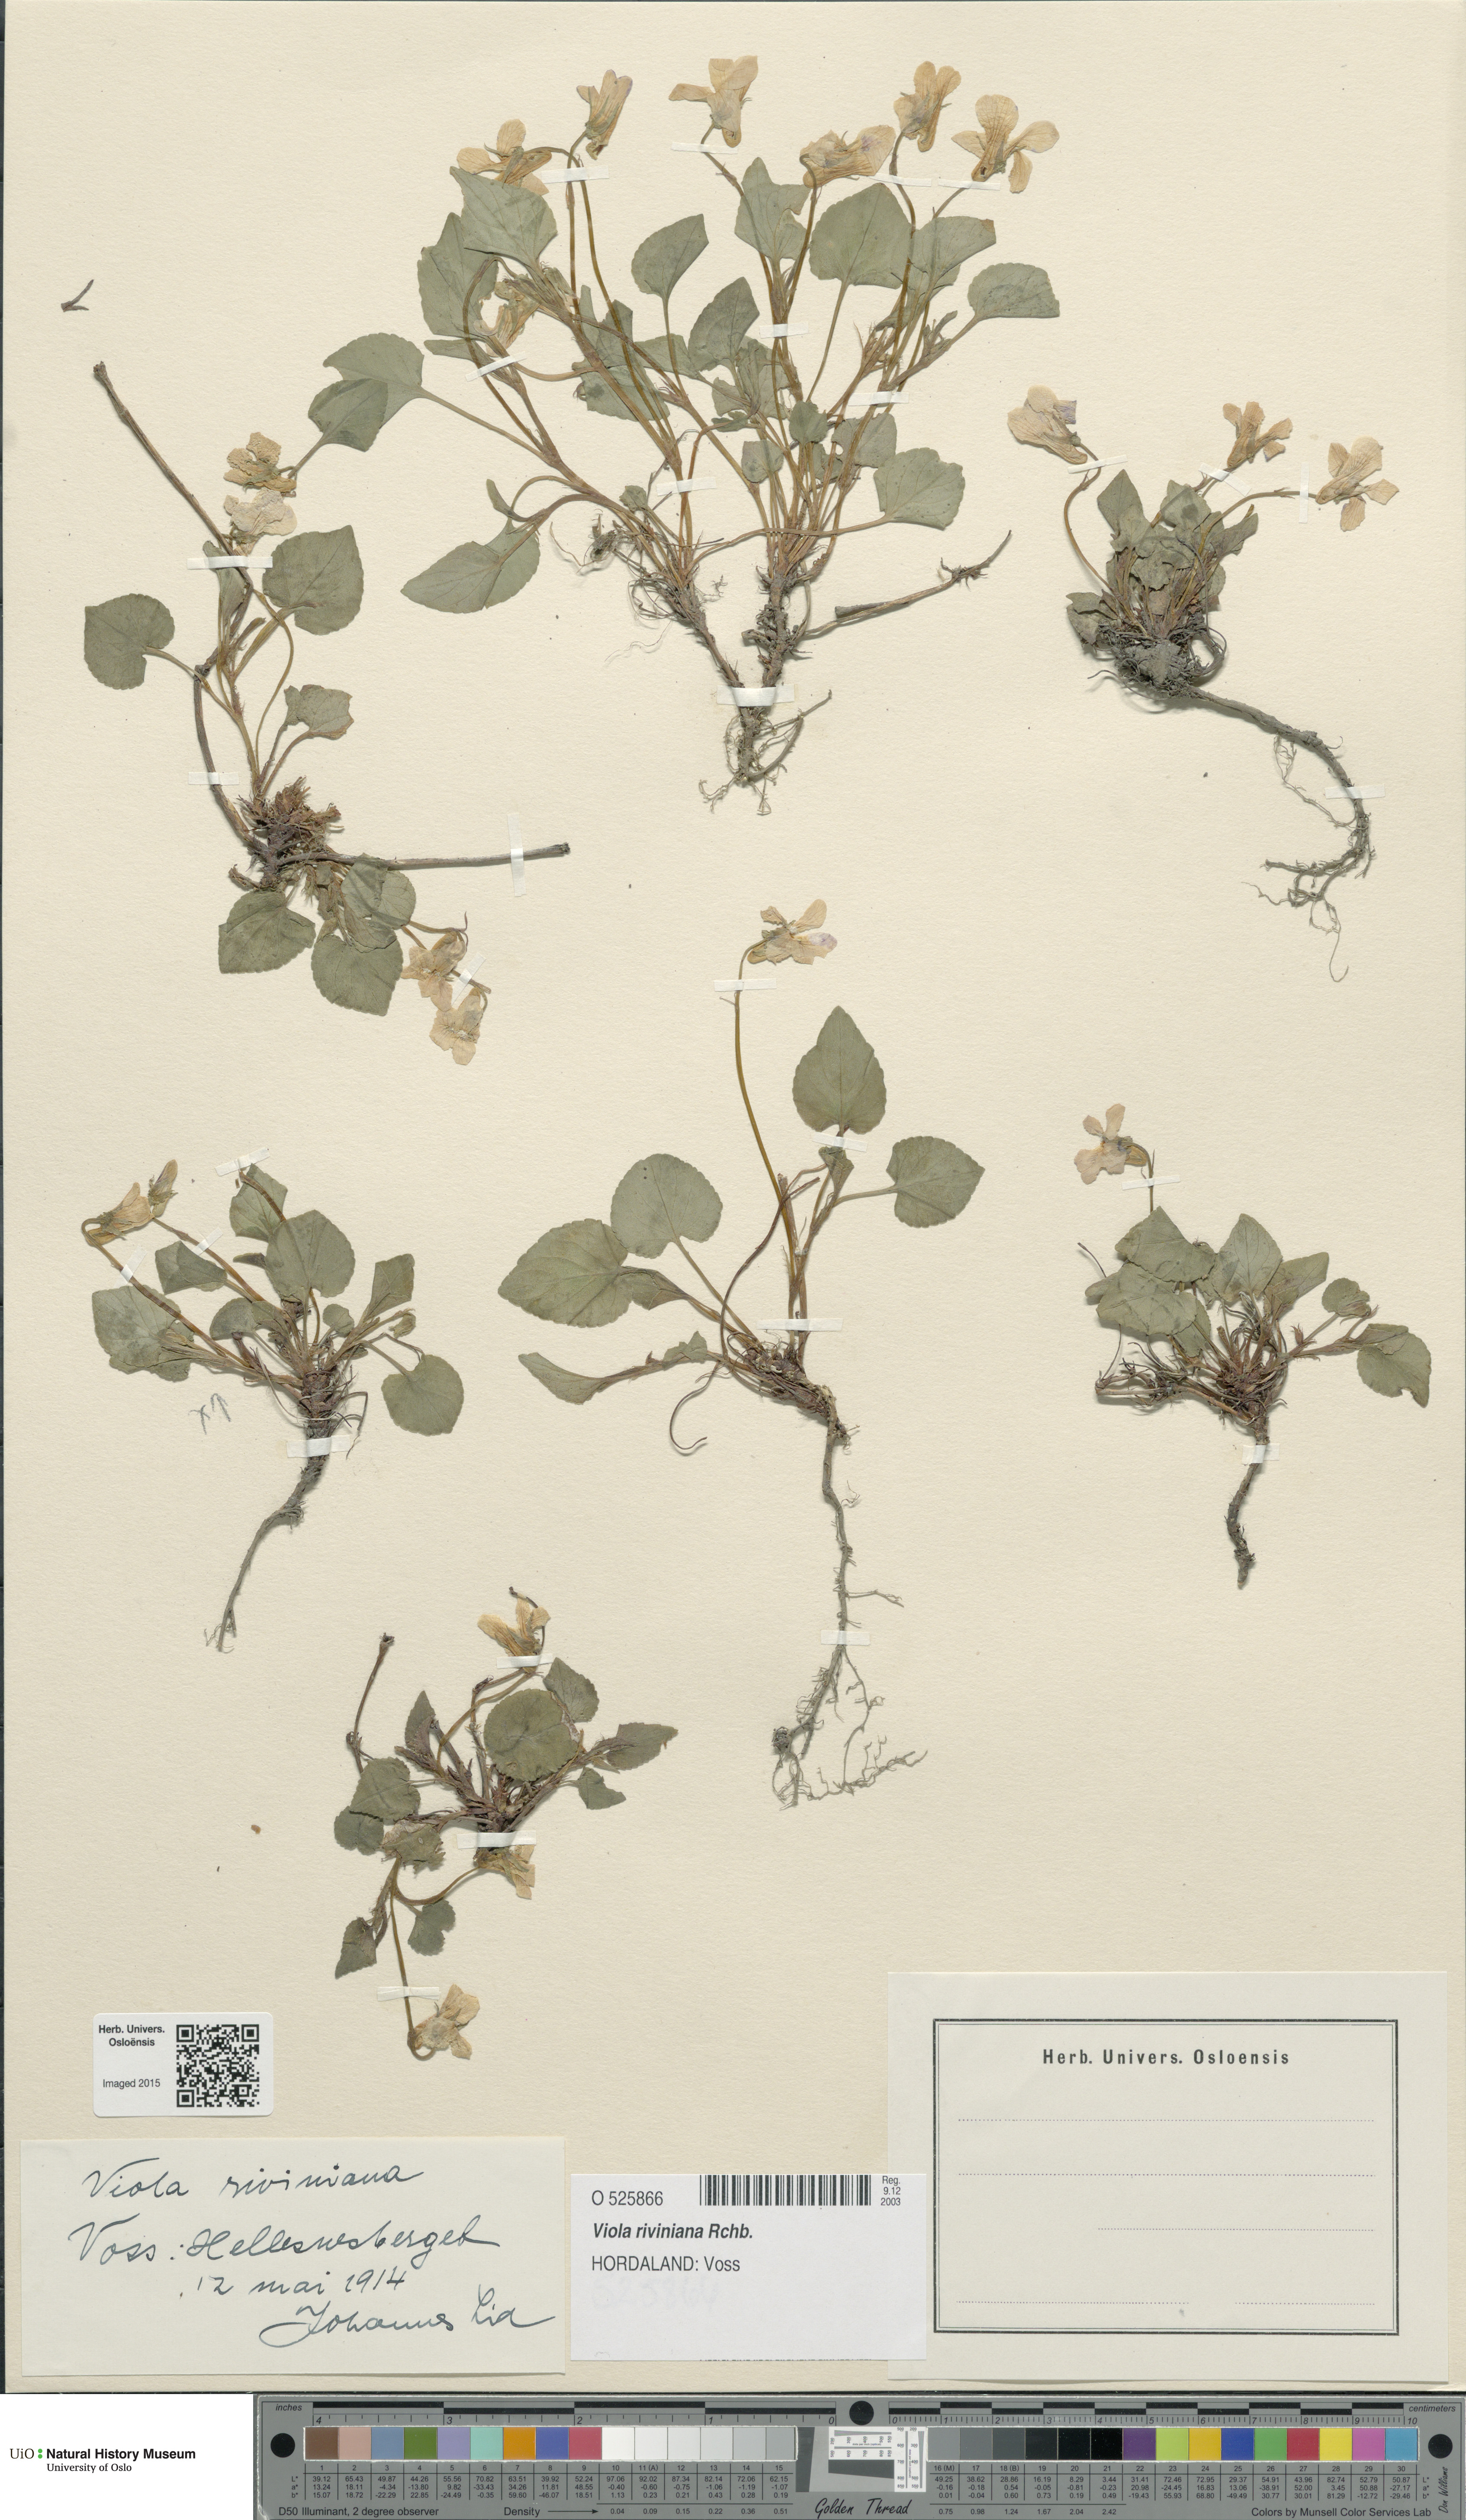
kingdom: Plantae
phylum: Tracheophyta
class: Magnoliopsida
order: Malpighiales
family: Violaceae
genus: Viola
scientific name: Viola riviniana
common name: Common dog-violet
